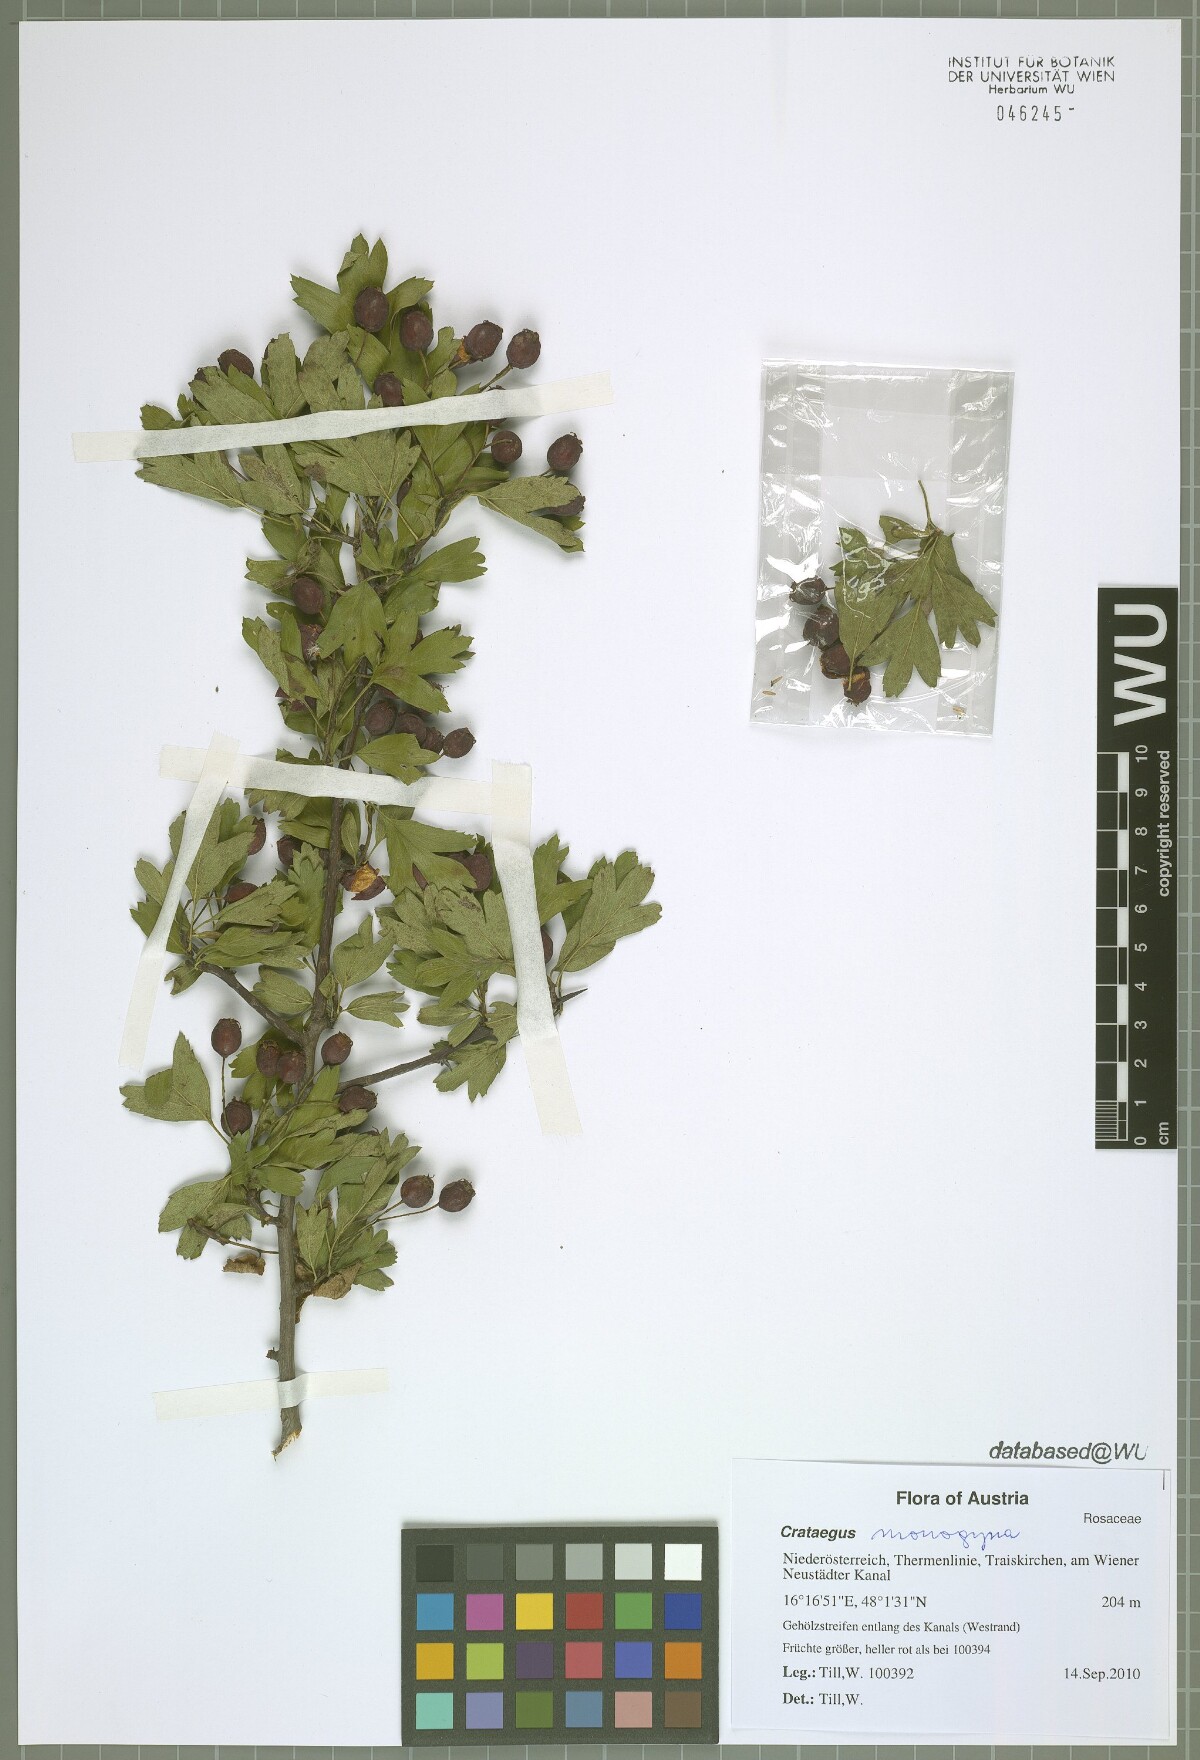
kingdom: Plantae
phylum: Tracheophyta
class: Magnoliopsida
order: Rosales
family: Rosaceae
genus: Crataegus
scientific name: Crataegus monogyna
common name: Hawthorn
